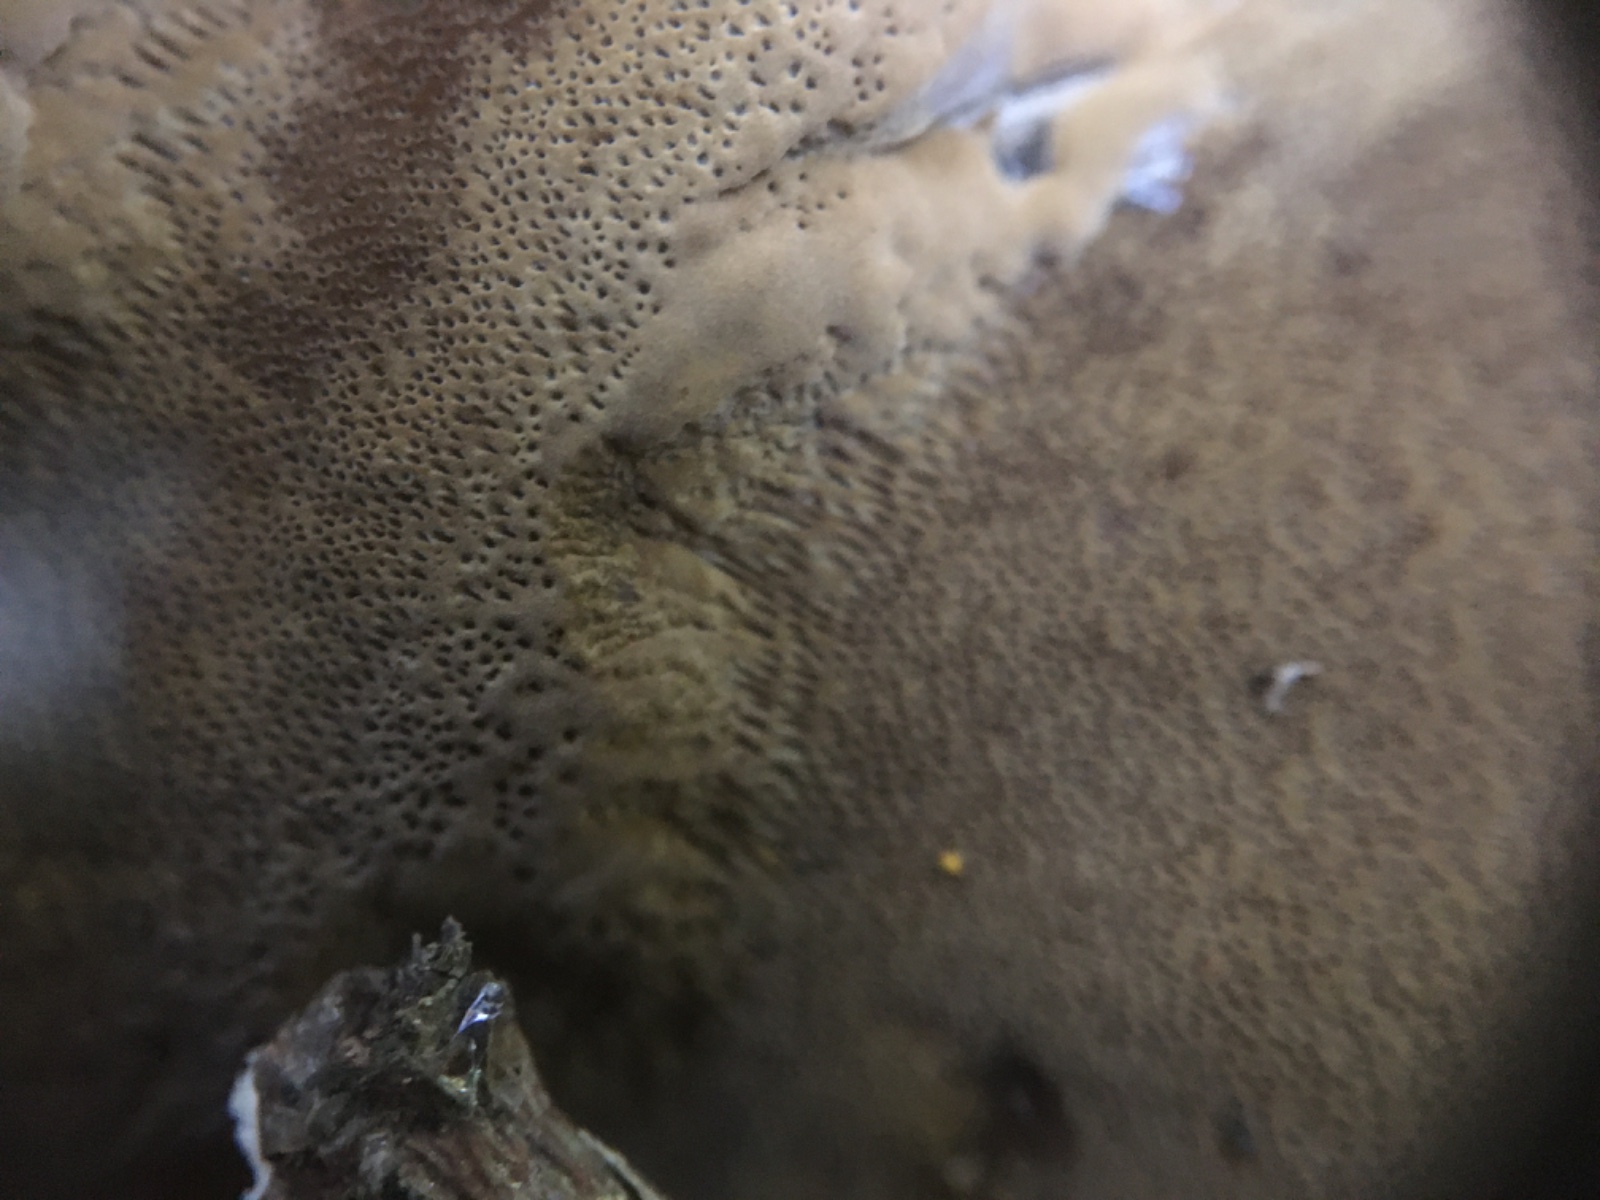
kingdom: Fungi
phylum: Basidiomycota
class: Agaricomycetes
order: Hymenochaetales
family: Hymenochaetaceae
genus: Phellinus
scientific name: Phellinus igniarius
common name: almindelig ildporesvamp
